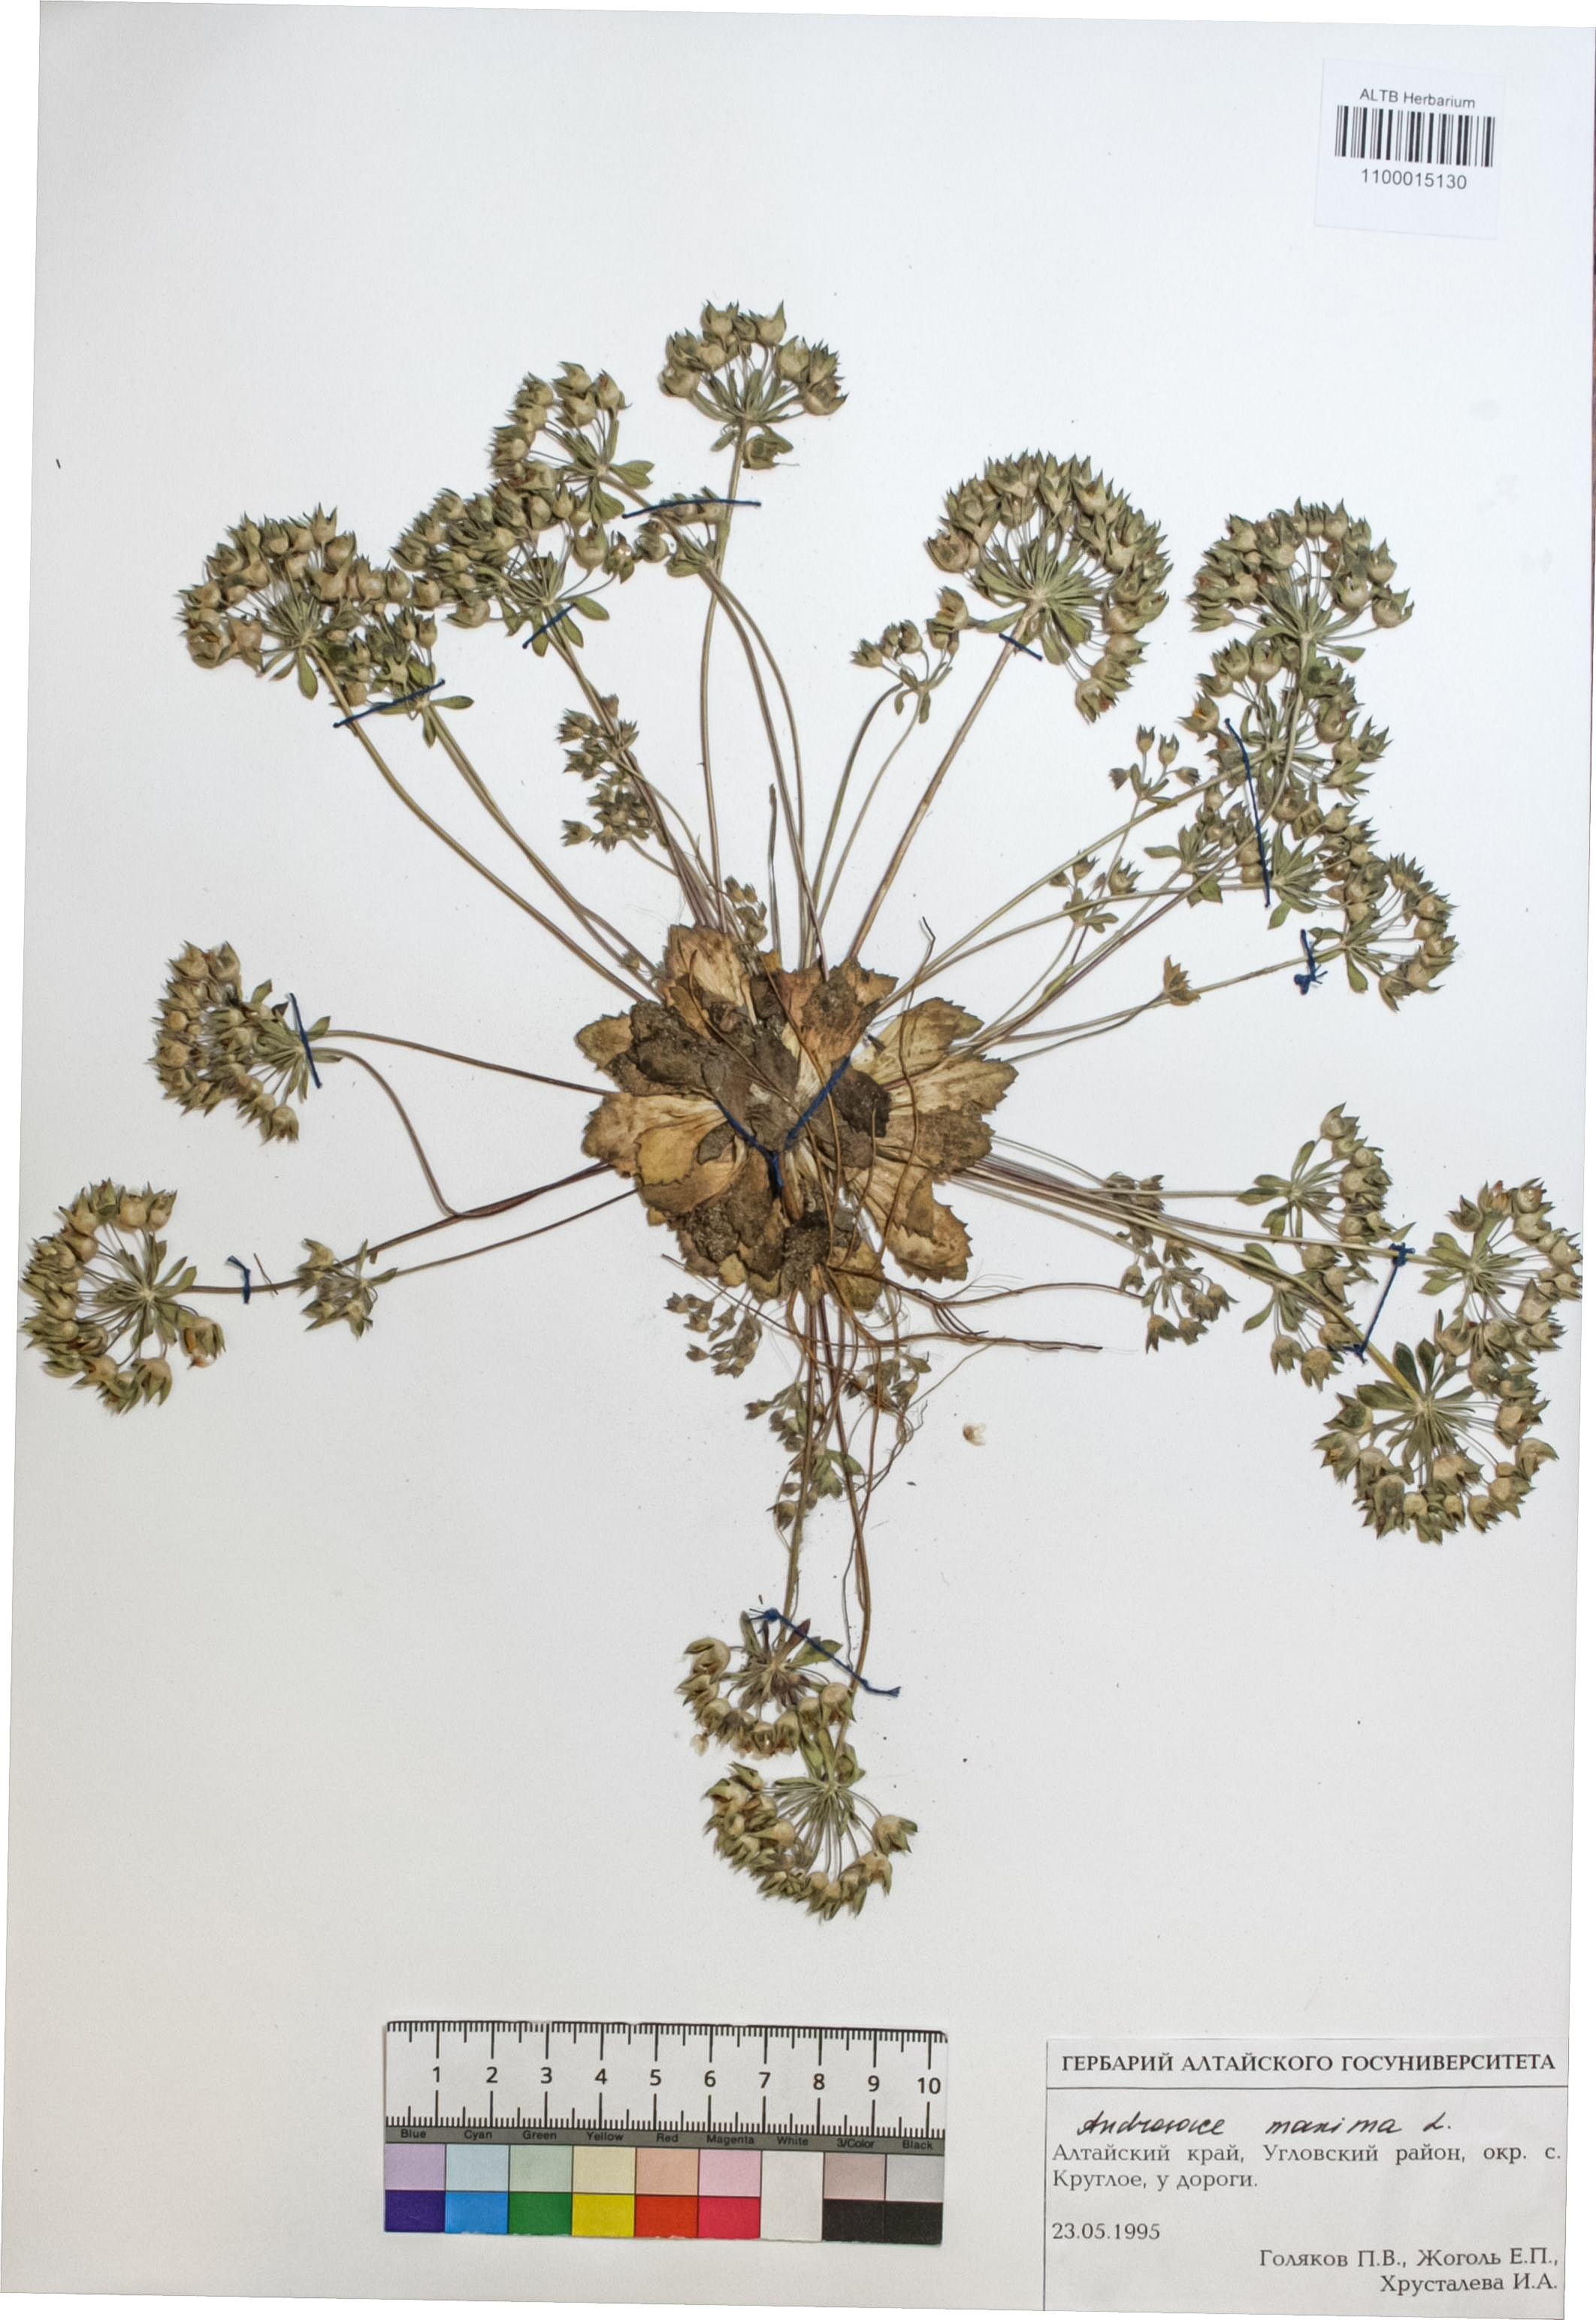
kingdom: Plantae
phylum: Tracheophyta
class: Magnoliopsida
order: Ericales
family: Primulaceae
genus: Androsace
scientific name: Androsace maxima
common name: Annual androsace
